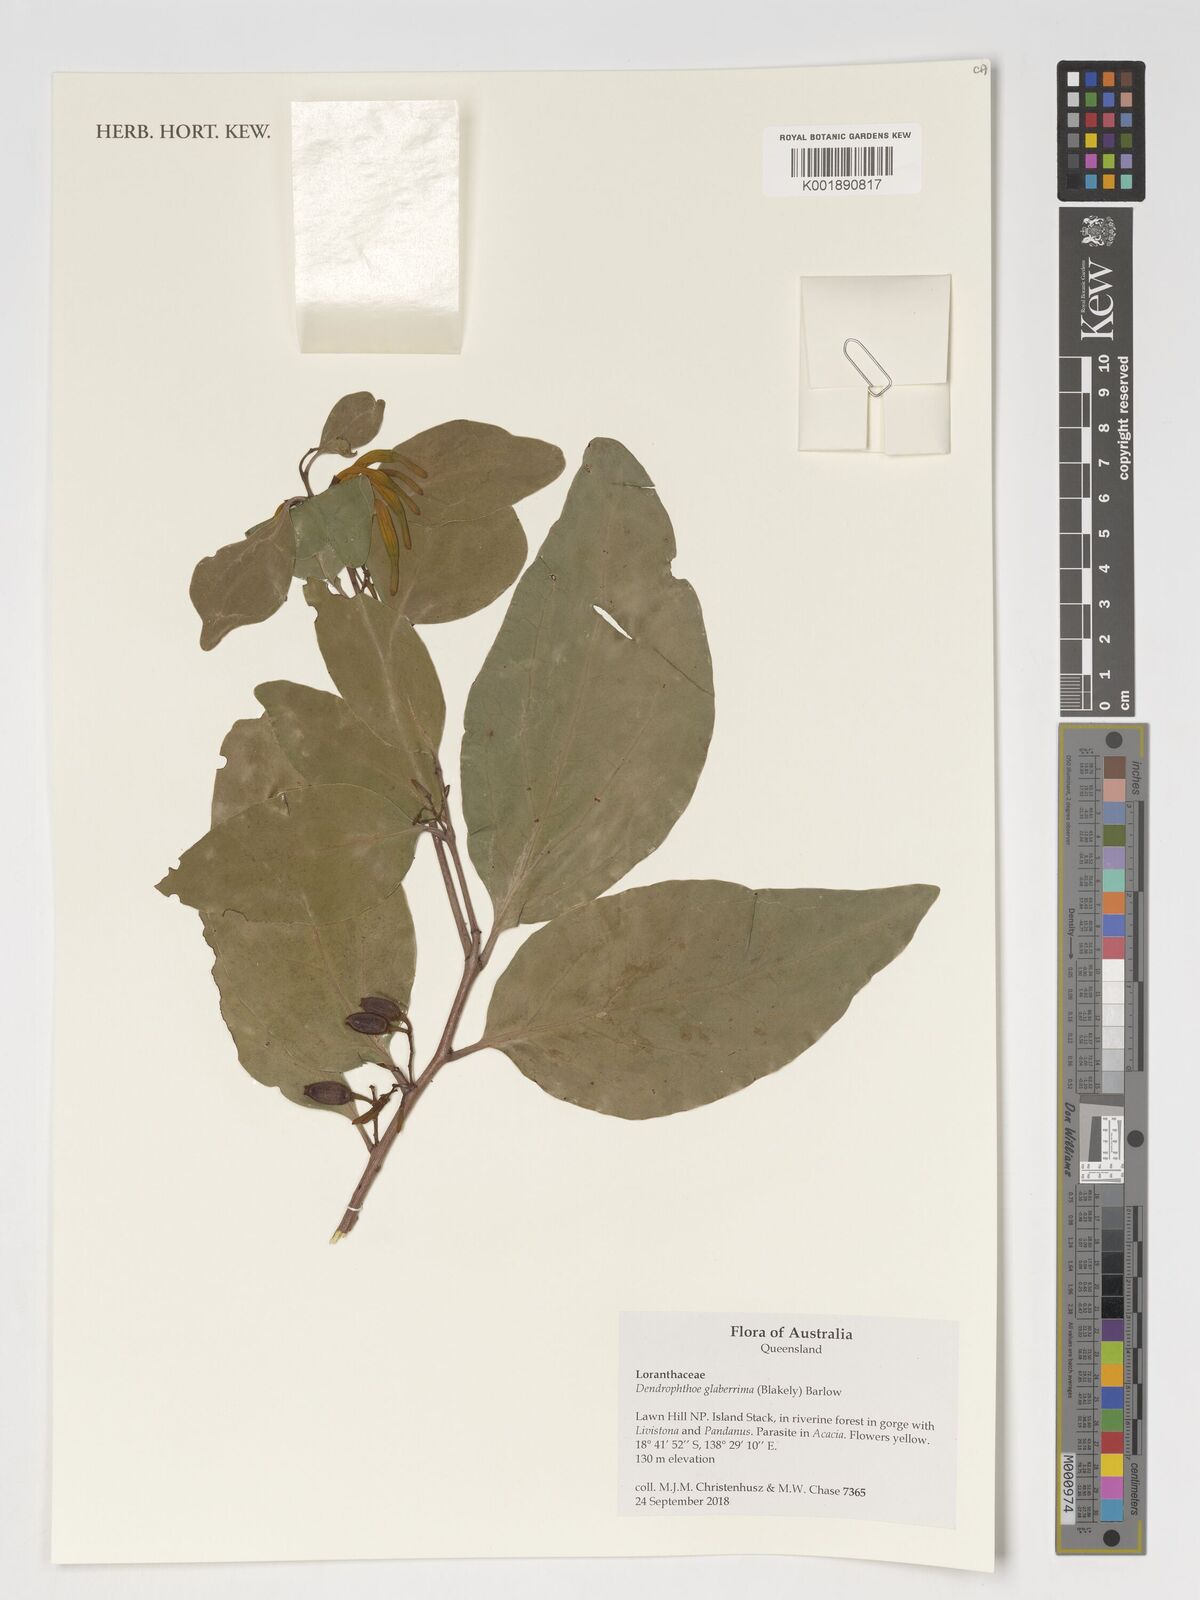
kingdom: Plantae
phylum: Tracheophyta
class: Magnoliopsida
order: Santalales
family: Loranthaceae
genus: Dendrophthoe
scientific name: Dendrophthoe glabrescens
